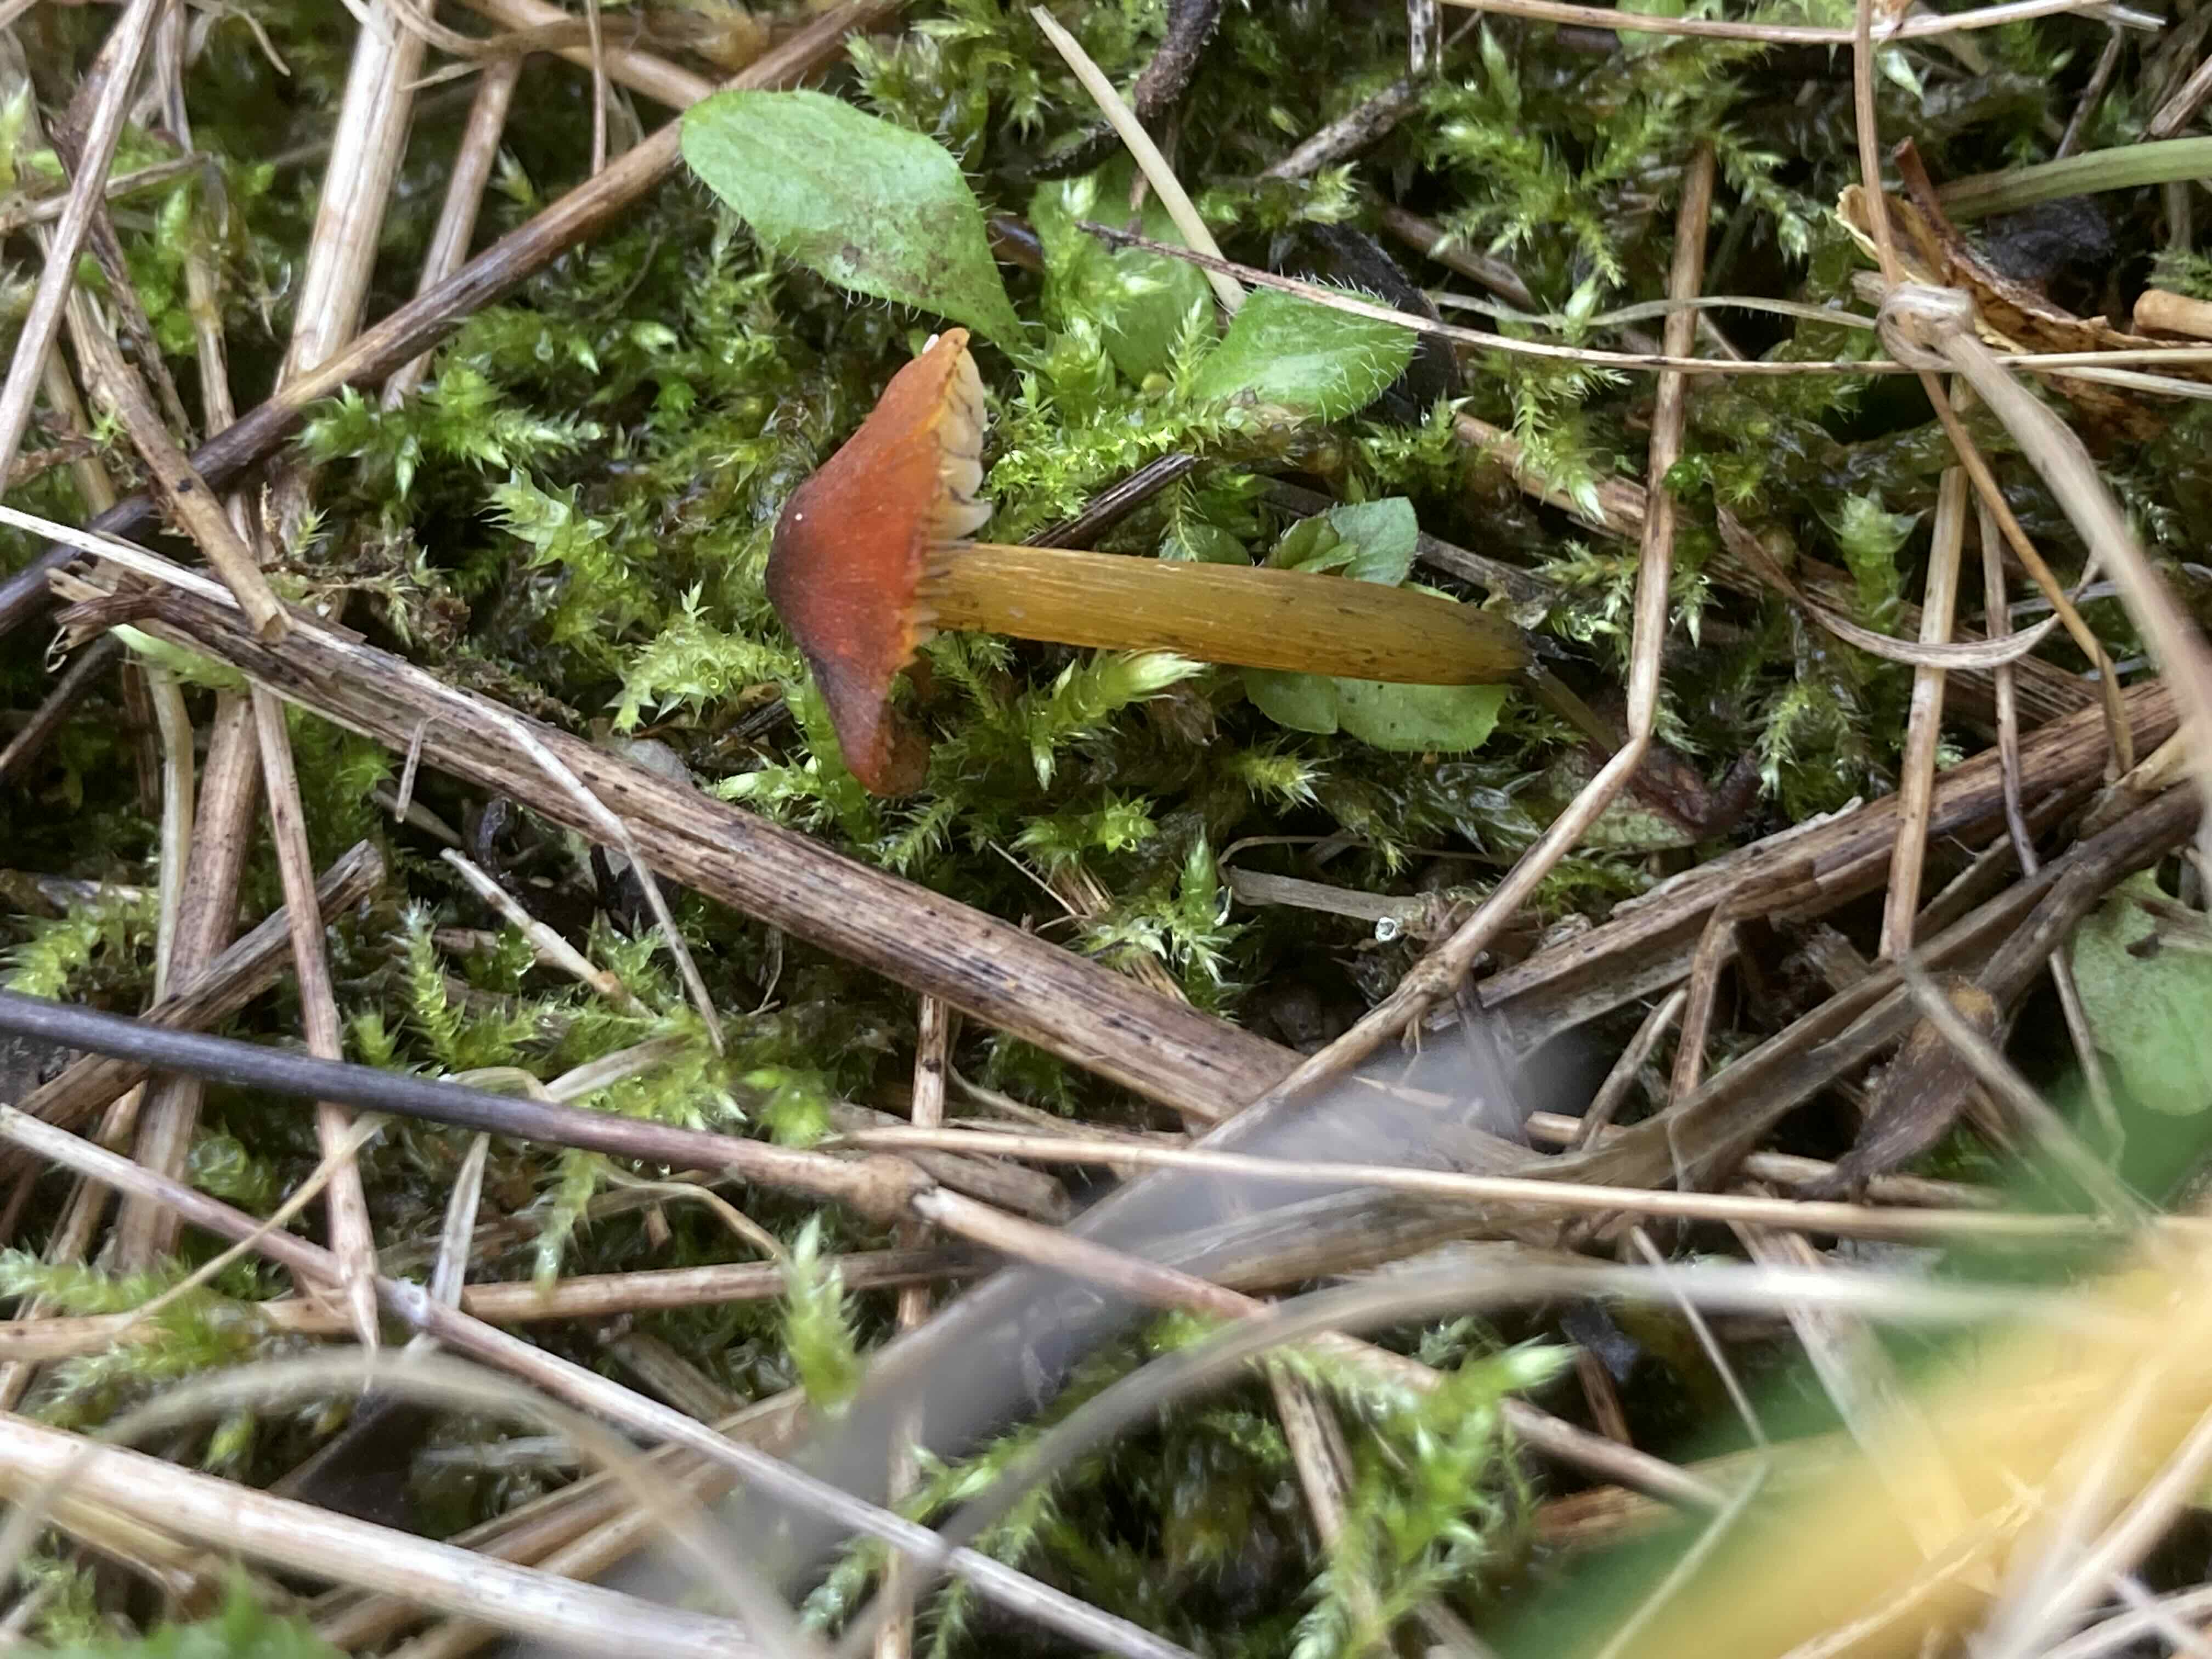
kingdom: Fungi
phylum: Basidiomycota
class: Agaricomycetes
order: Agaricales
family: Hygrophoraceae
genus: Hygrocybe
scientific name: Hygrocybe conica
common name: kegle-vokshat
